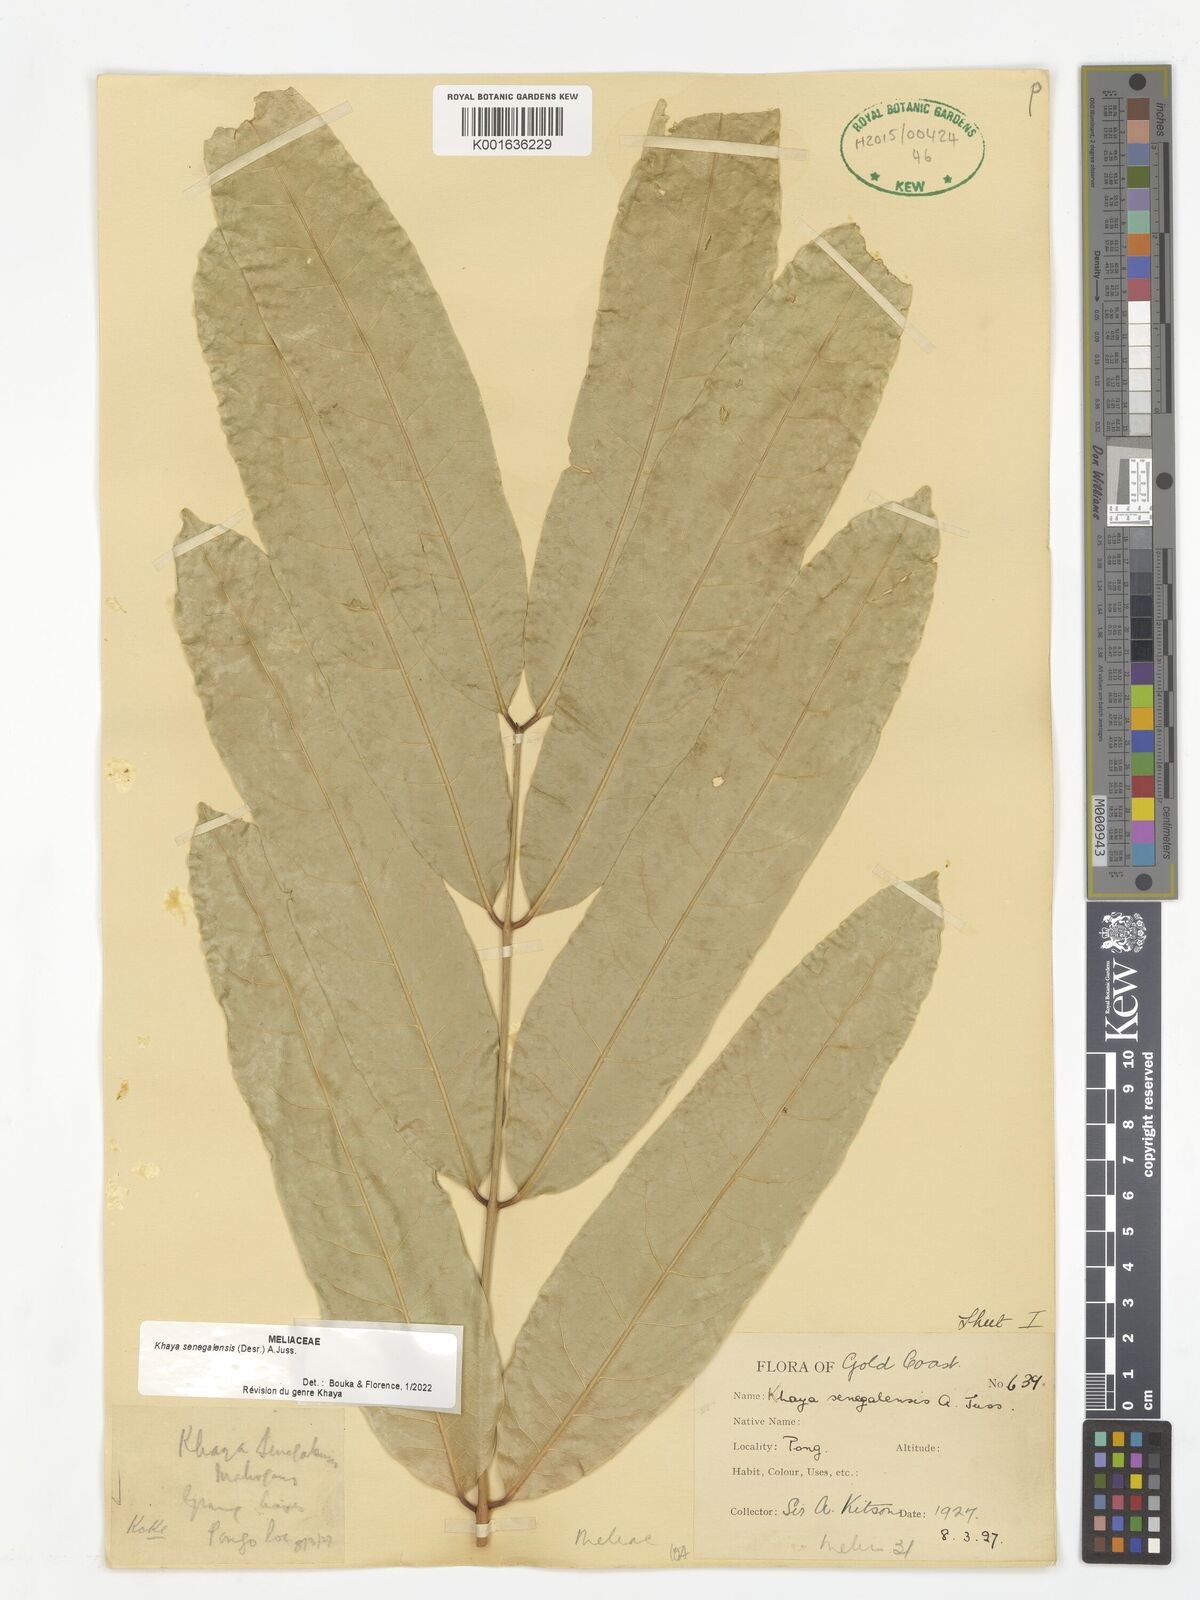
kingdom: Plantae
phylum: Tracheophyta
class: Magnoliopsida
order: Sapindales
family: Meliaceae
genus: Khaya
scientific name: Khaya senegalensis
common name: Senegal mahogany
